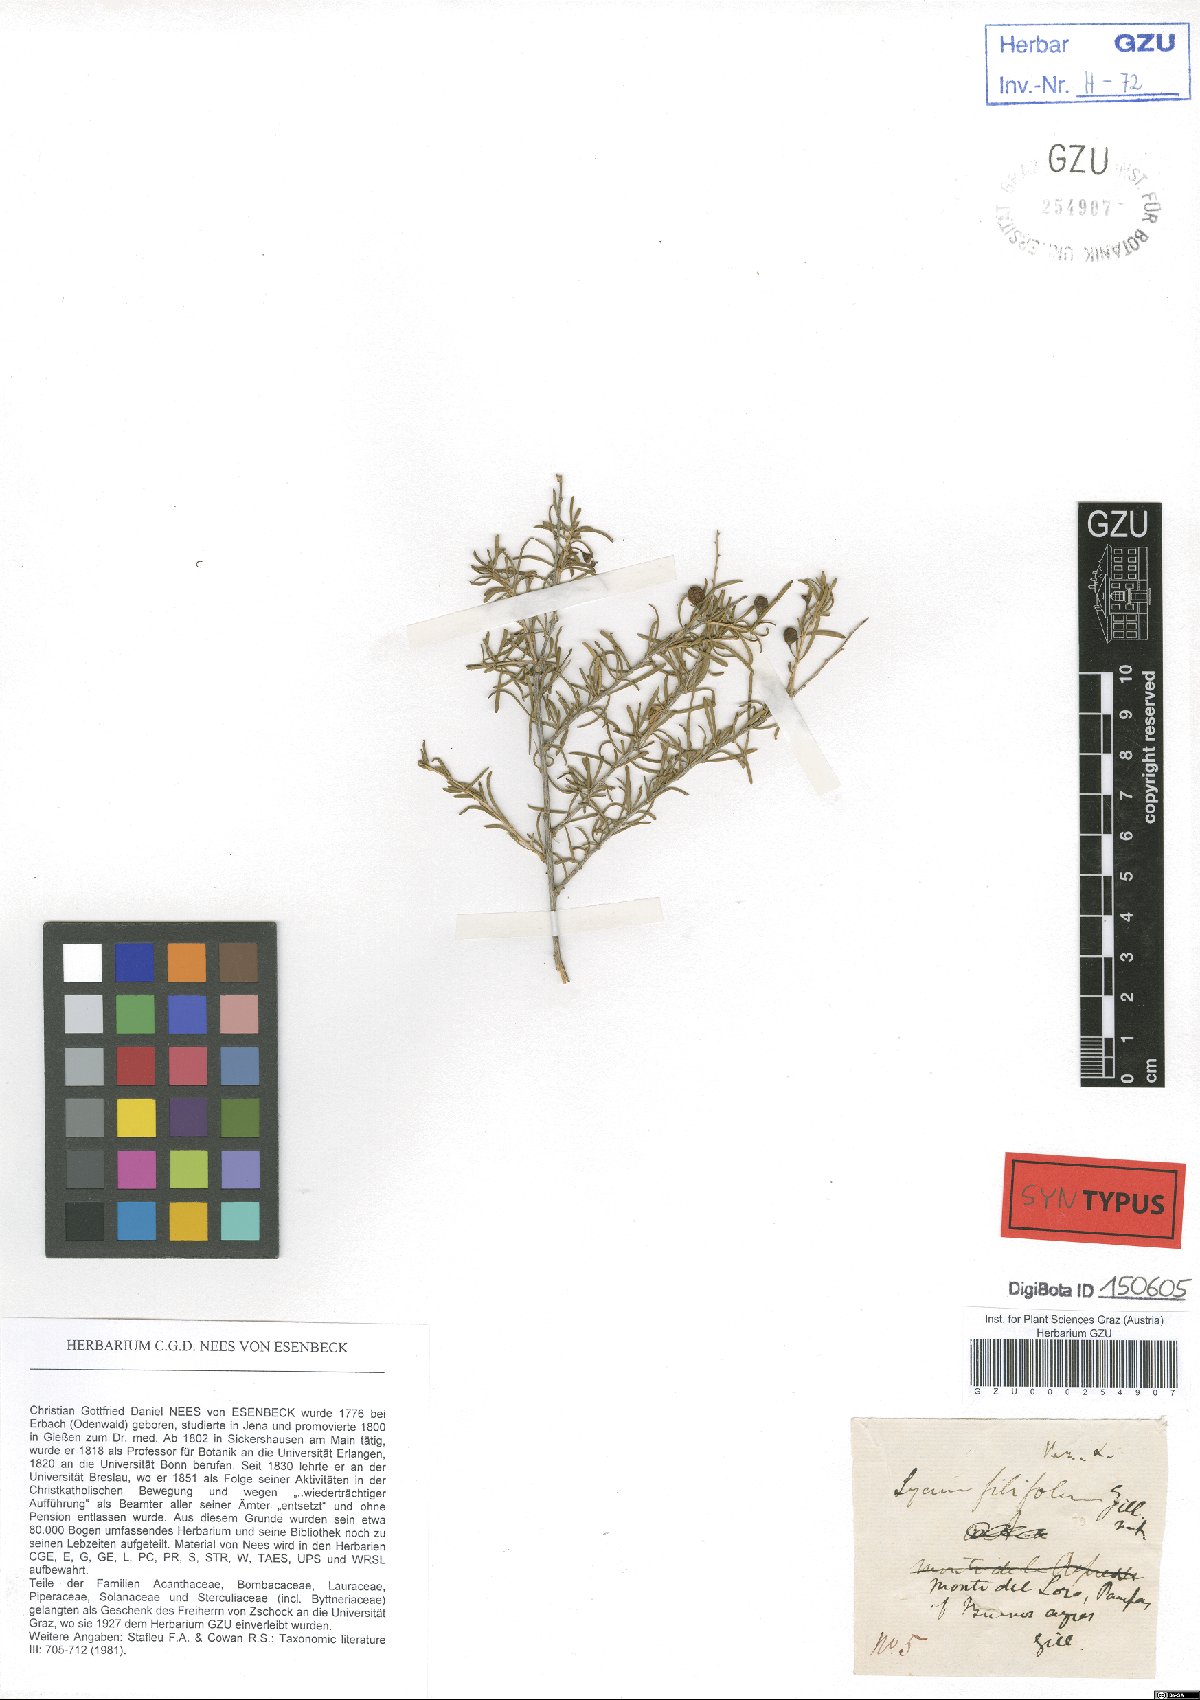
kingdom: Plantae
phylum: Tracheophyta
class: Magnoliopsida
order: Solanales
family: Solanaceae
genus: Lycium
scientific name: Lycium chilense
